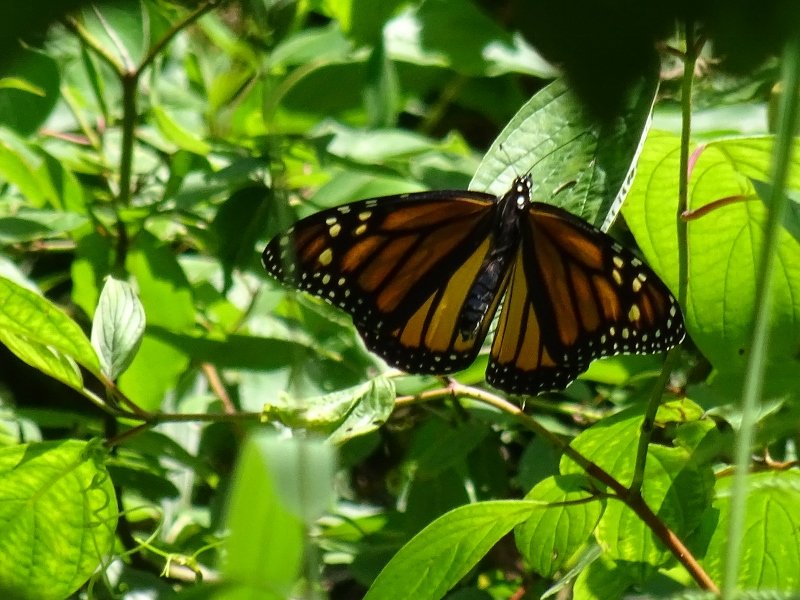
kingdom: Animalia
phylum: Arthropoda
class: Insecta
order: Lepidoptera
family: Nymphalidae
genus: Danaus
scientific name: Danaus plexippus
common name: Monarch
